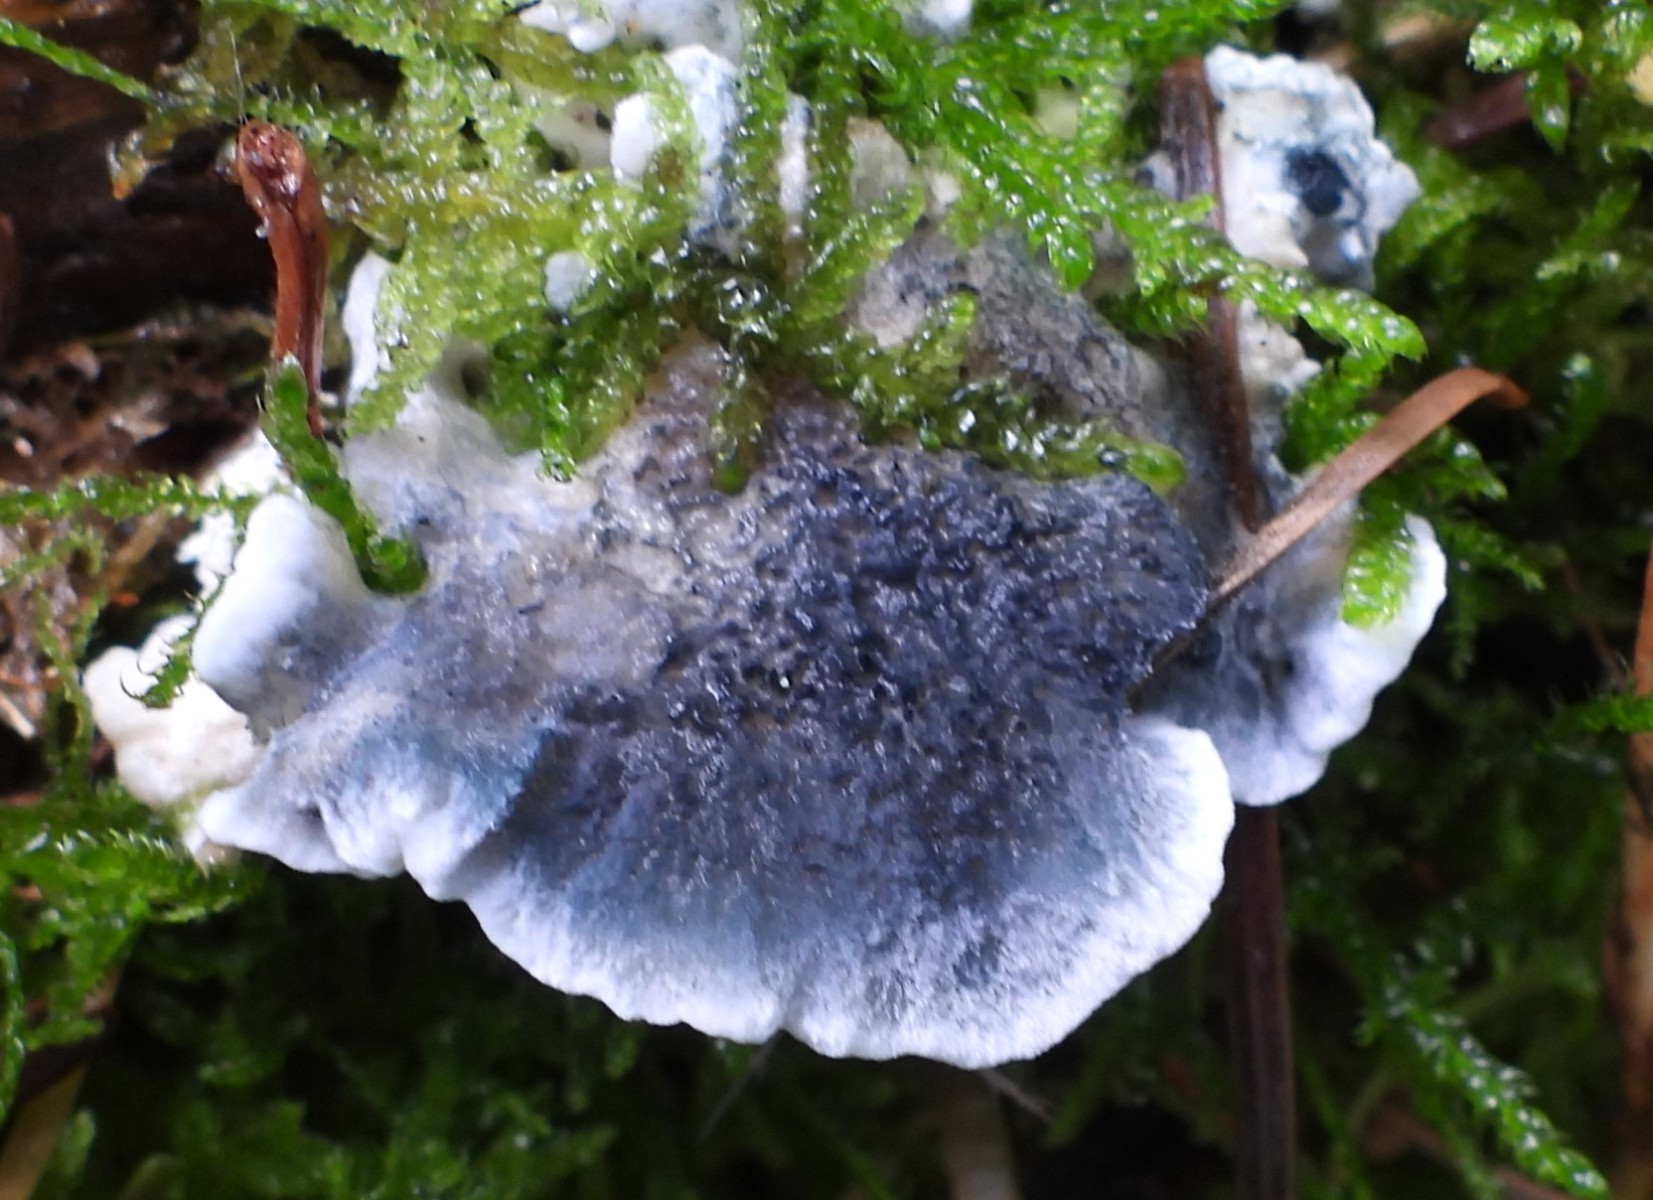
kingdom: Fungi
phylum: Basidiomycota
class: Agaricomycetes
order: Polyporales
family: Polyporaceae
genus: Cyanosporus
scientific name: Cyanosporus caesius
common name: blålig kødporesvamp
